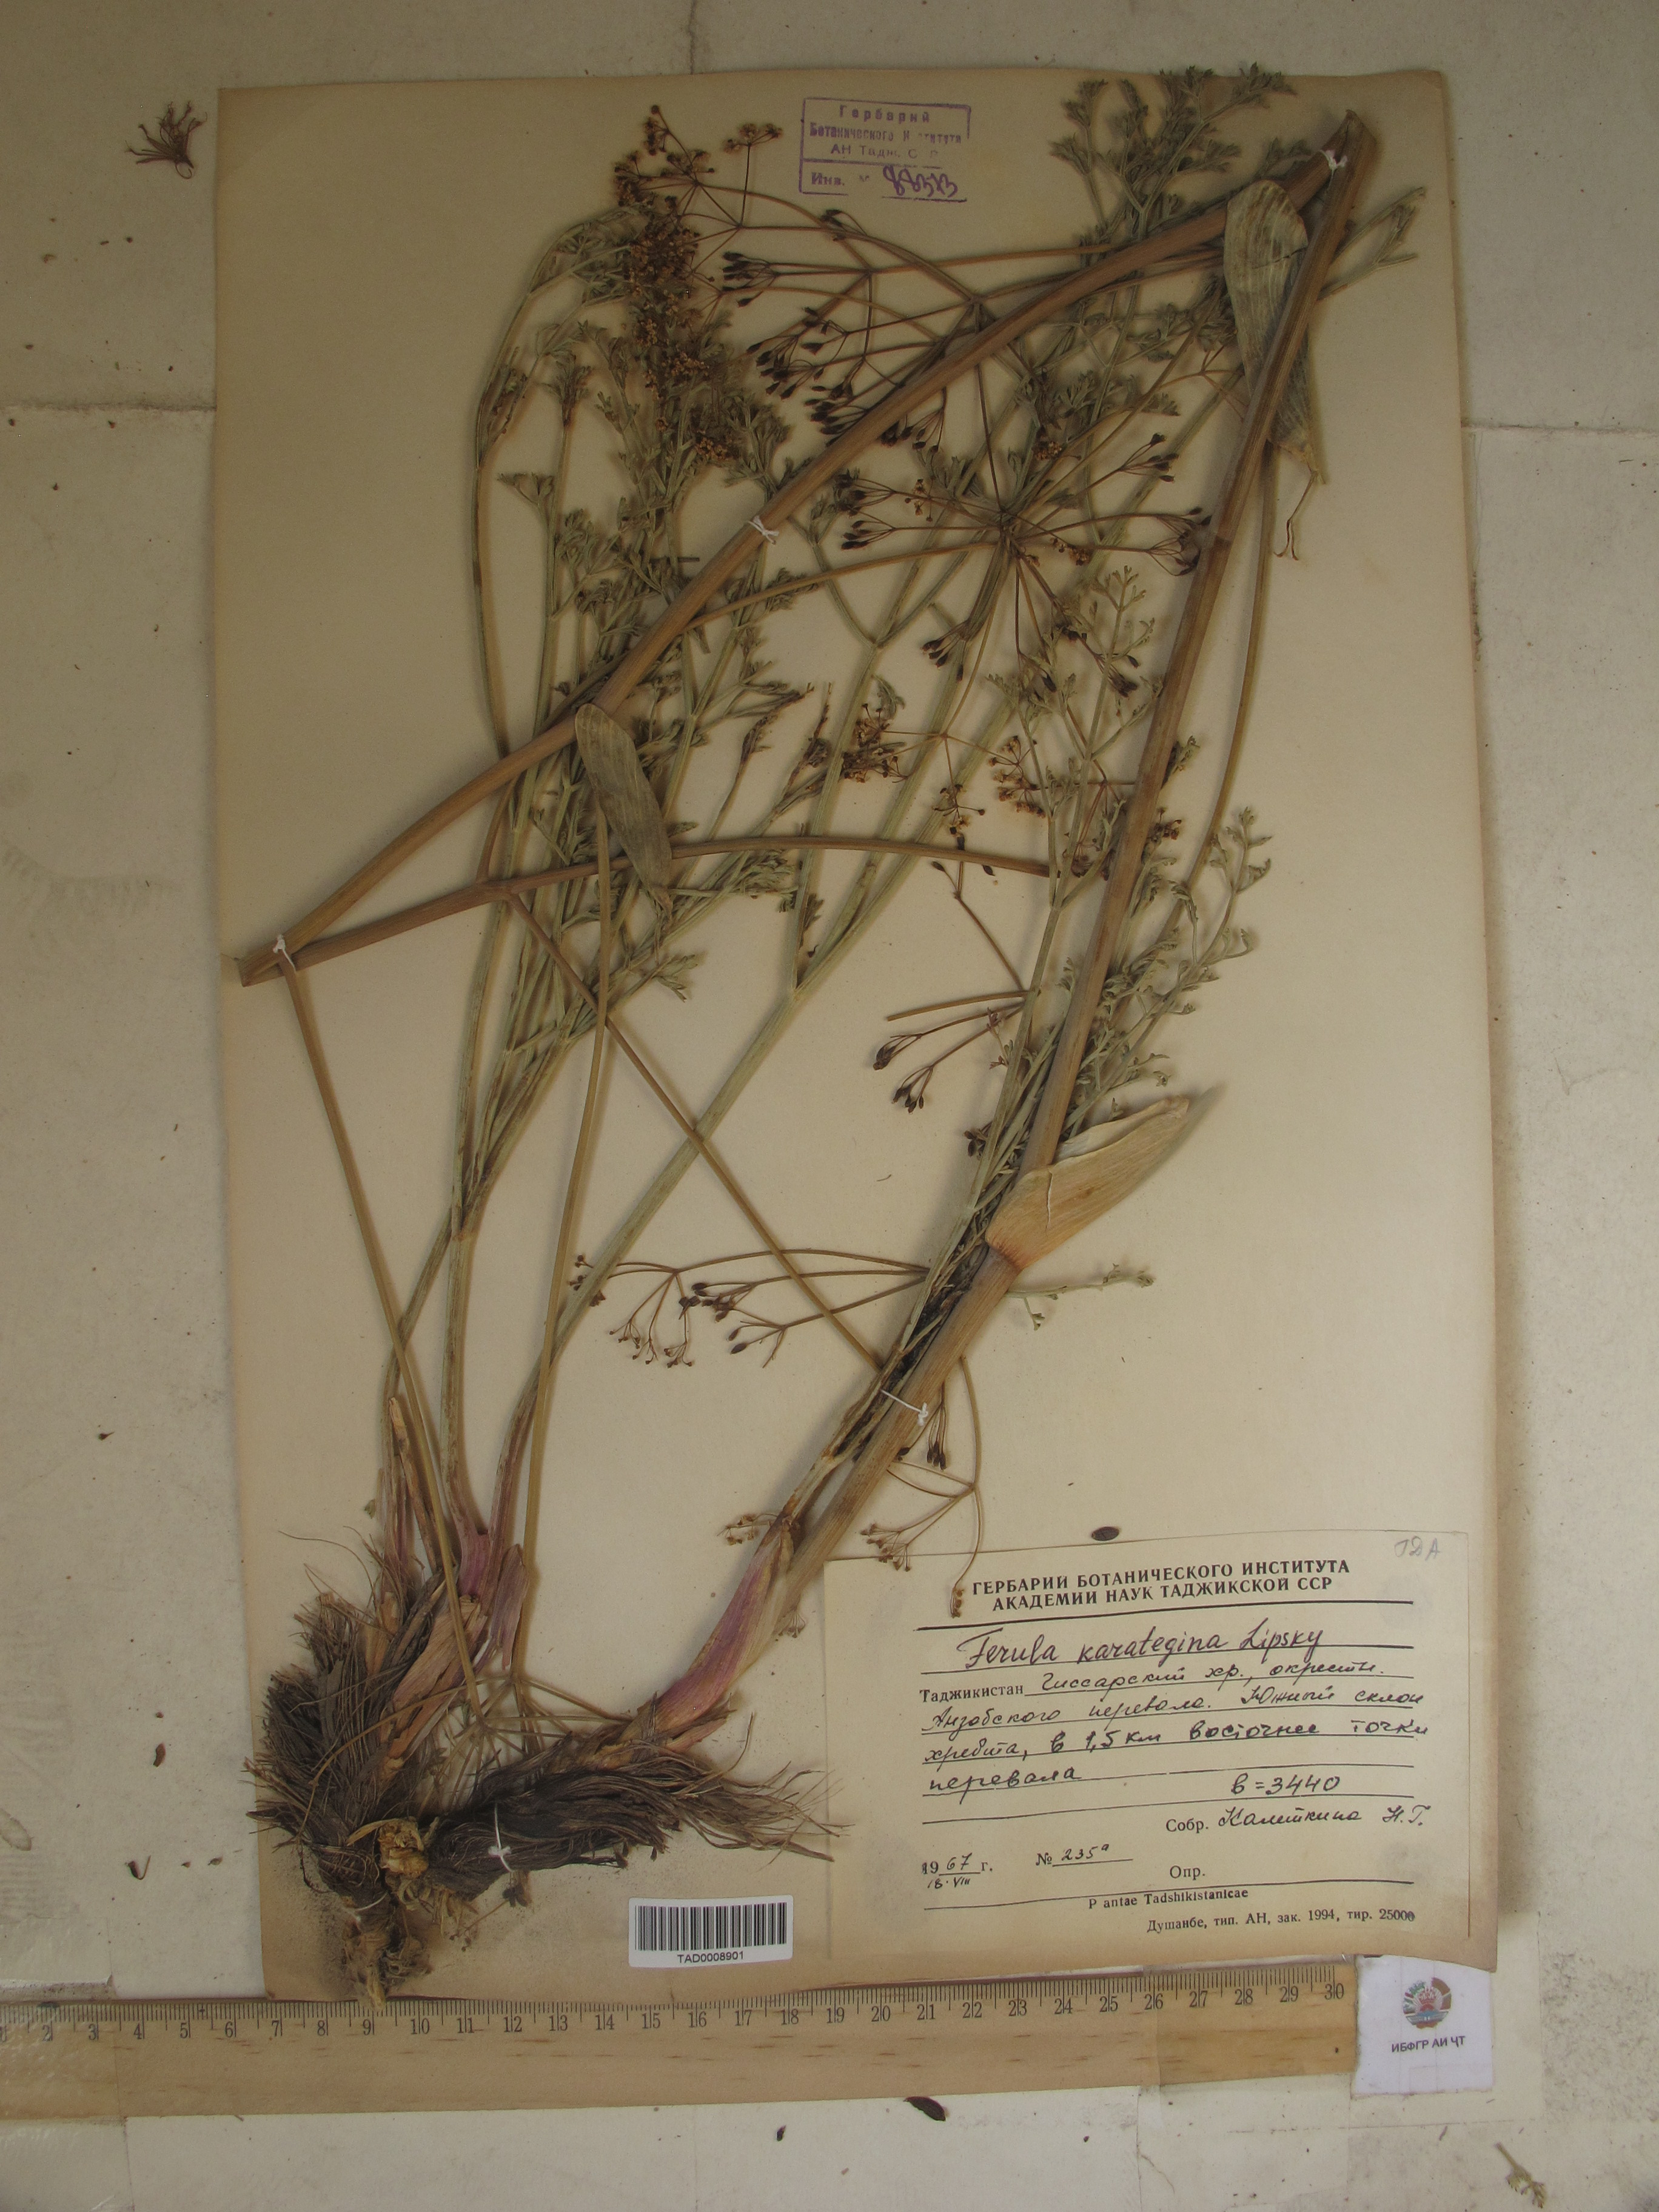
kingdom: Plantae
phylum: Tracheophyta
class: Magnoliopsida
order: Apiales
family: Apiaceae
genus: Ferula
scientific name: Ferula karategina
